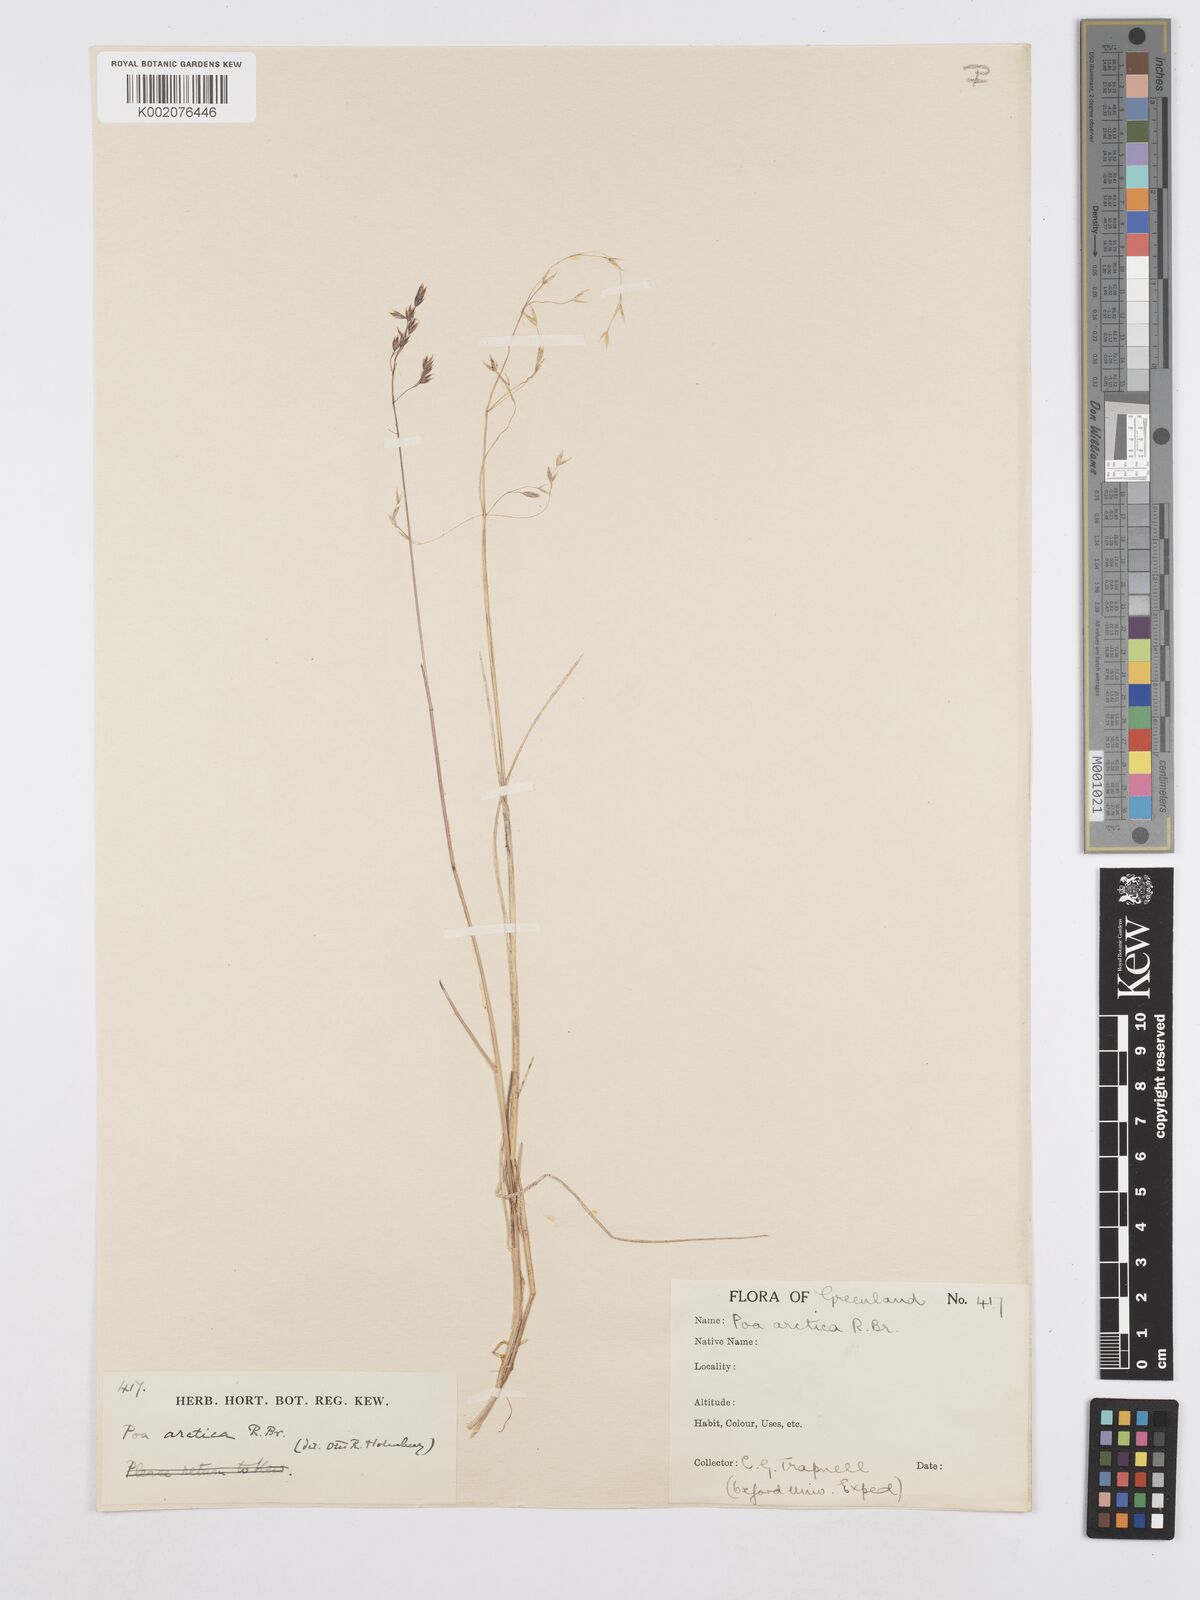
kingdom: Plantae
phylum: Tracheophyta
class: Liliopsida
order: Poales
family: Poaceae
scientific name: Poaceae
